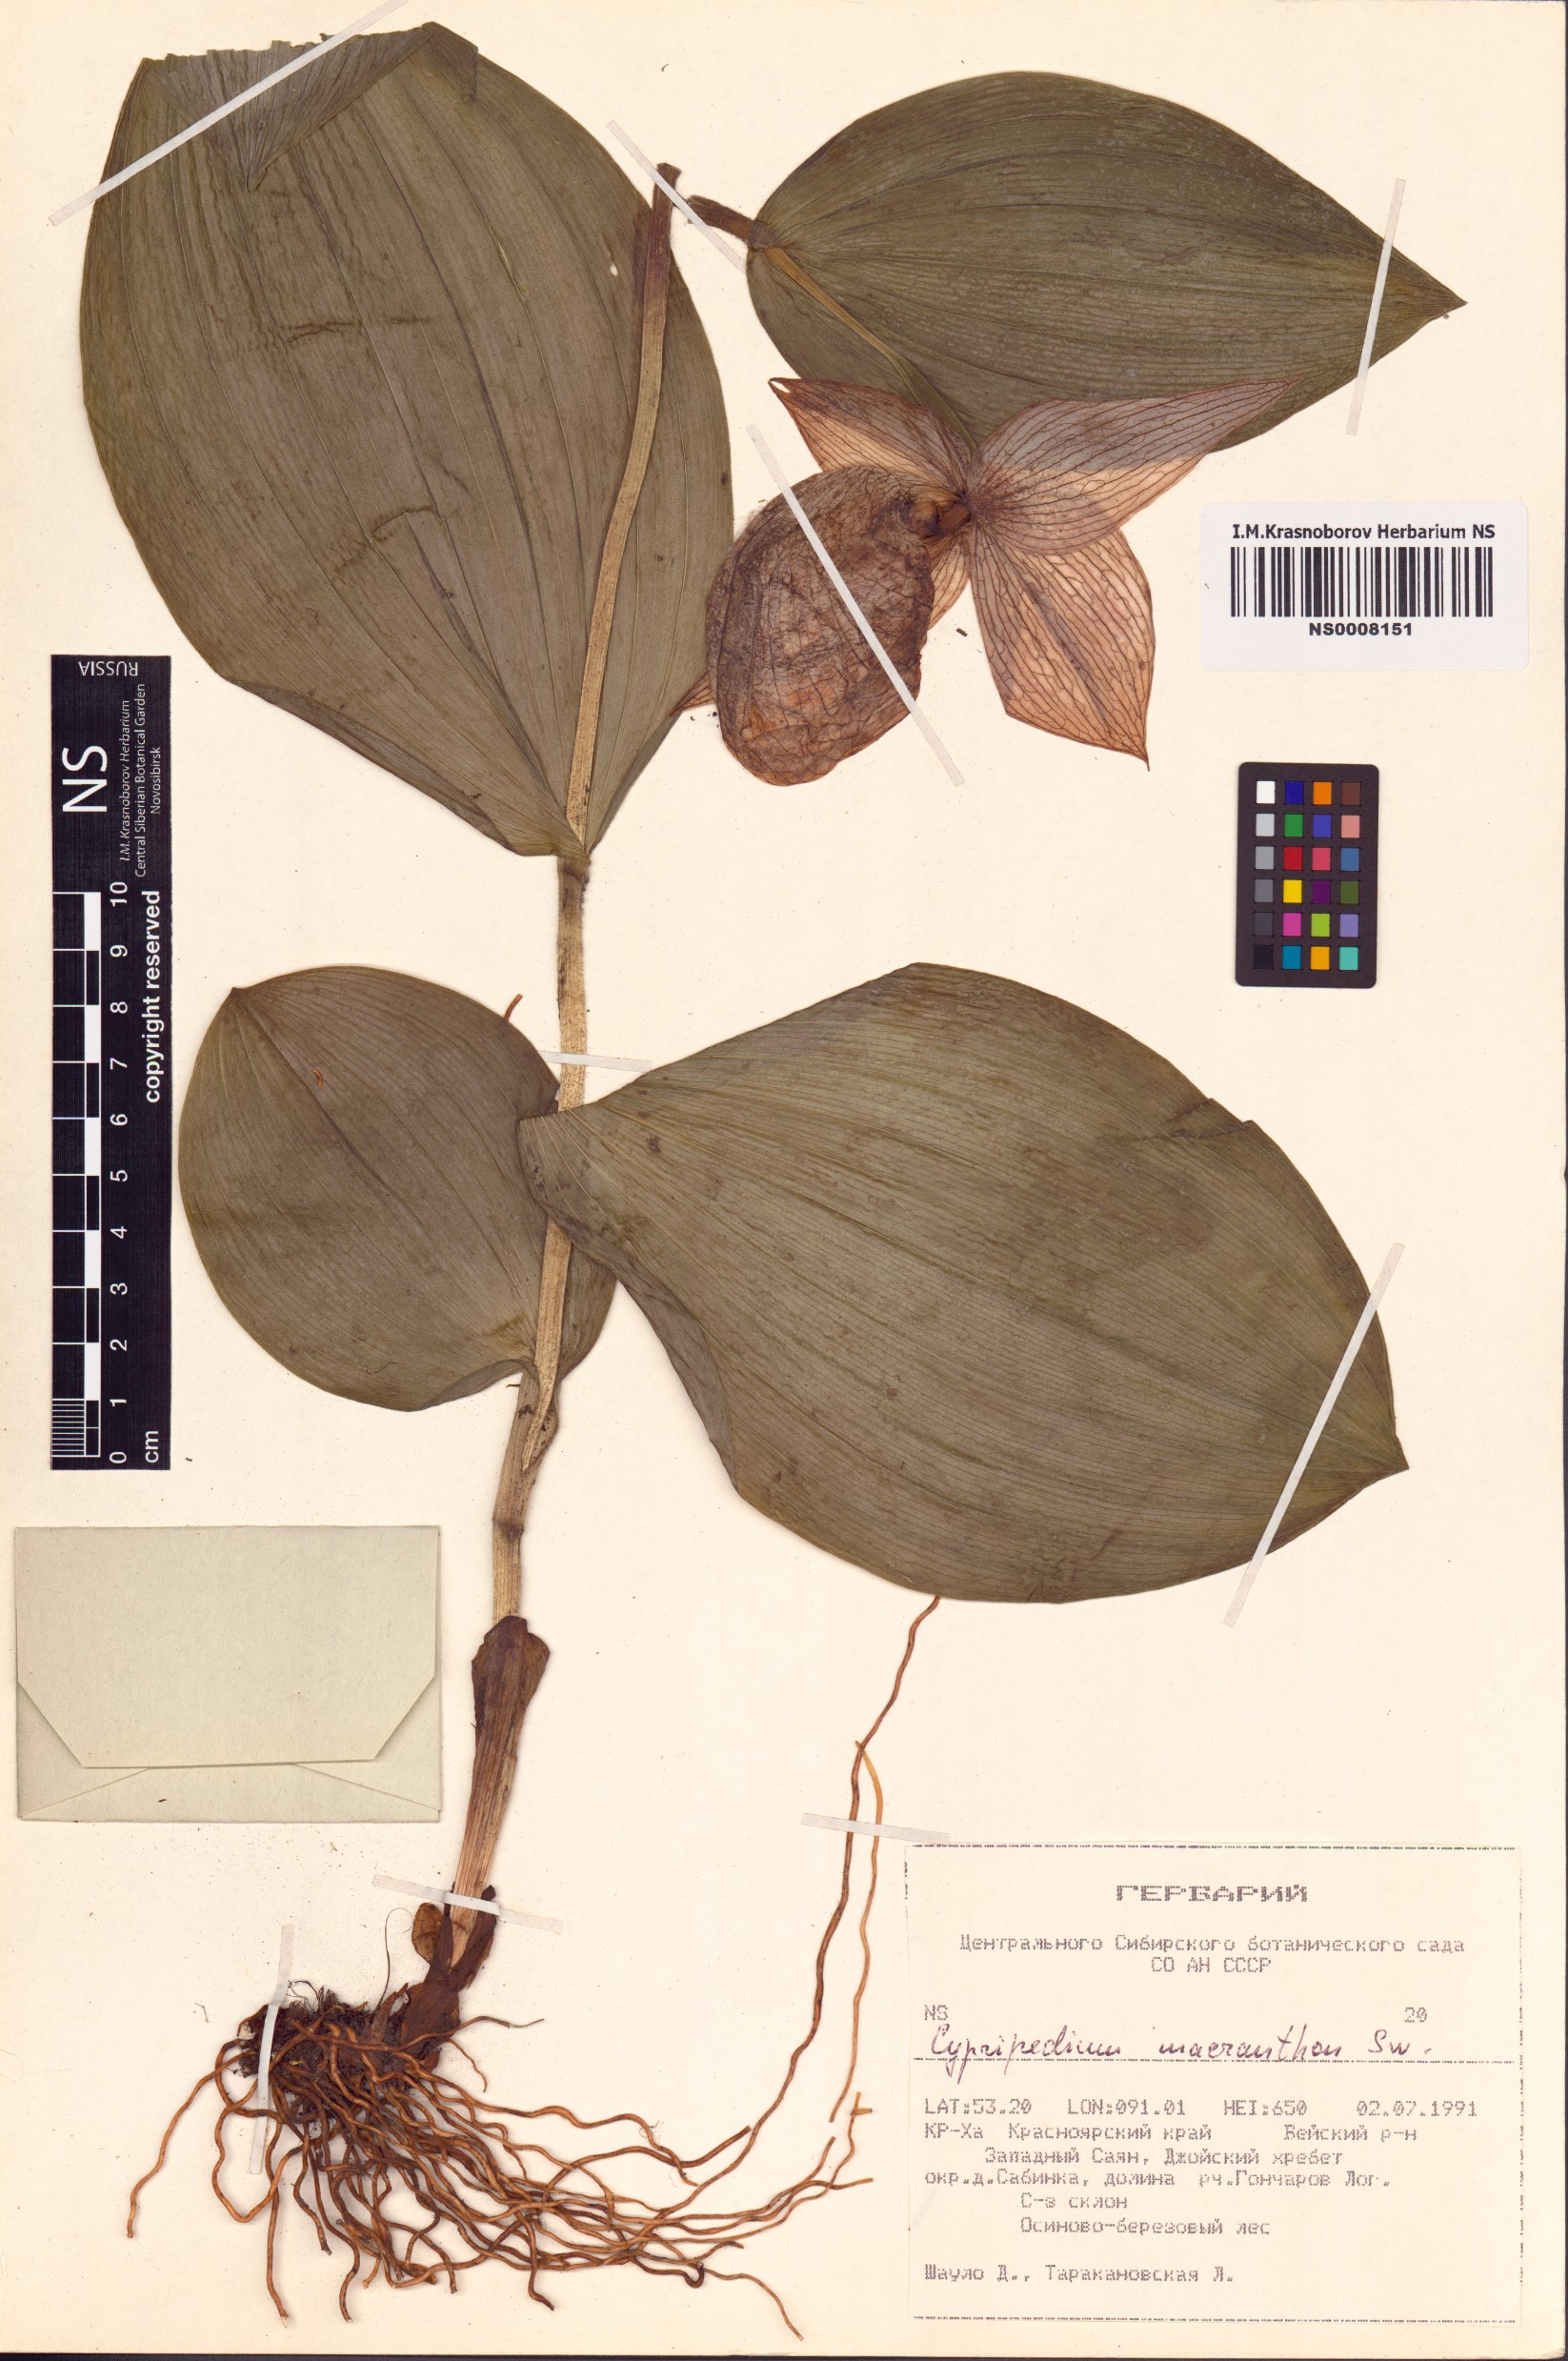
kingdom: Plantae
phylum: Tracheophyta
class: Liliopsida
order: Asparagales
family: Orchidaceae
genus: Cypripedium
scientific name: Cypripedium macranthos
